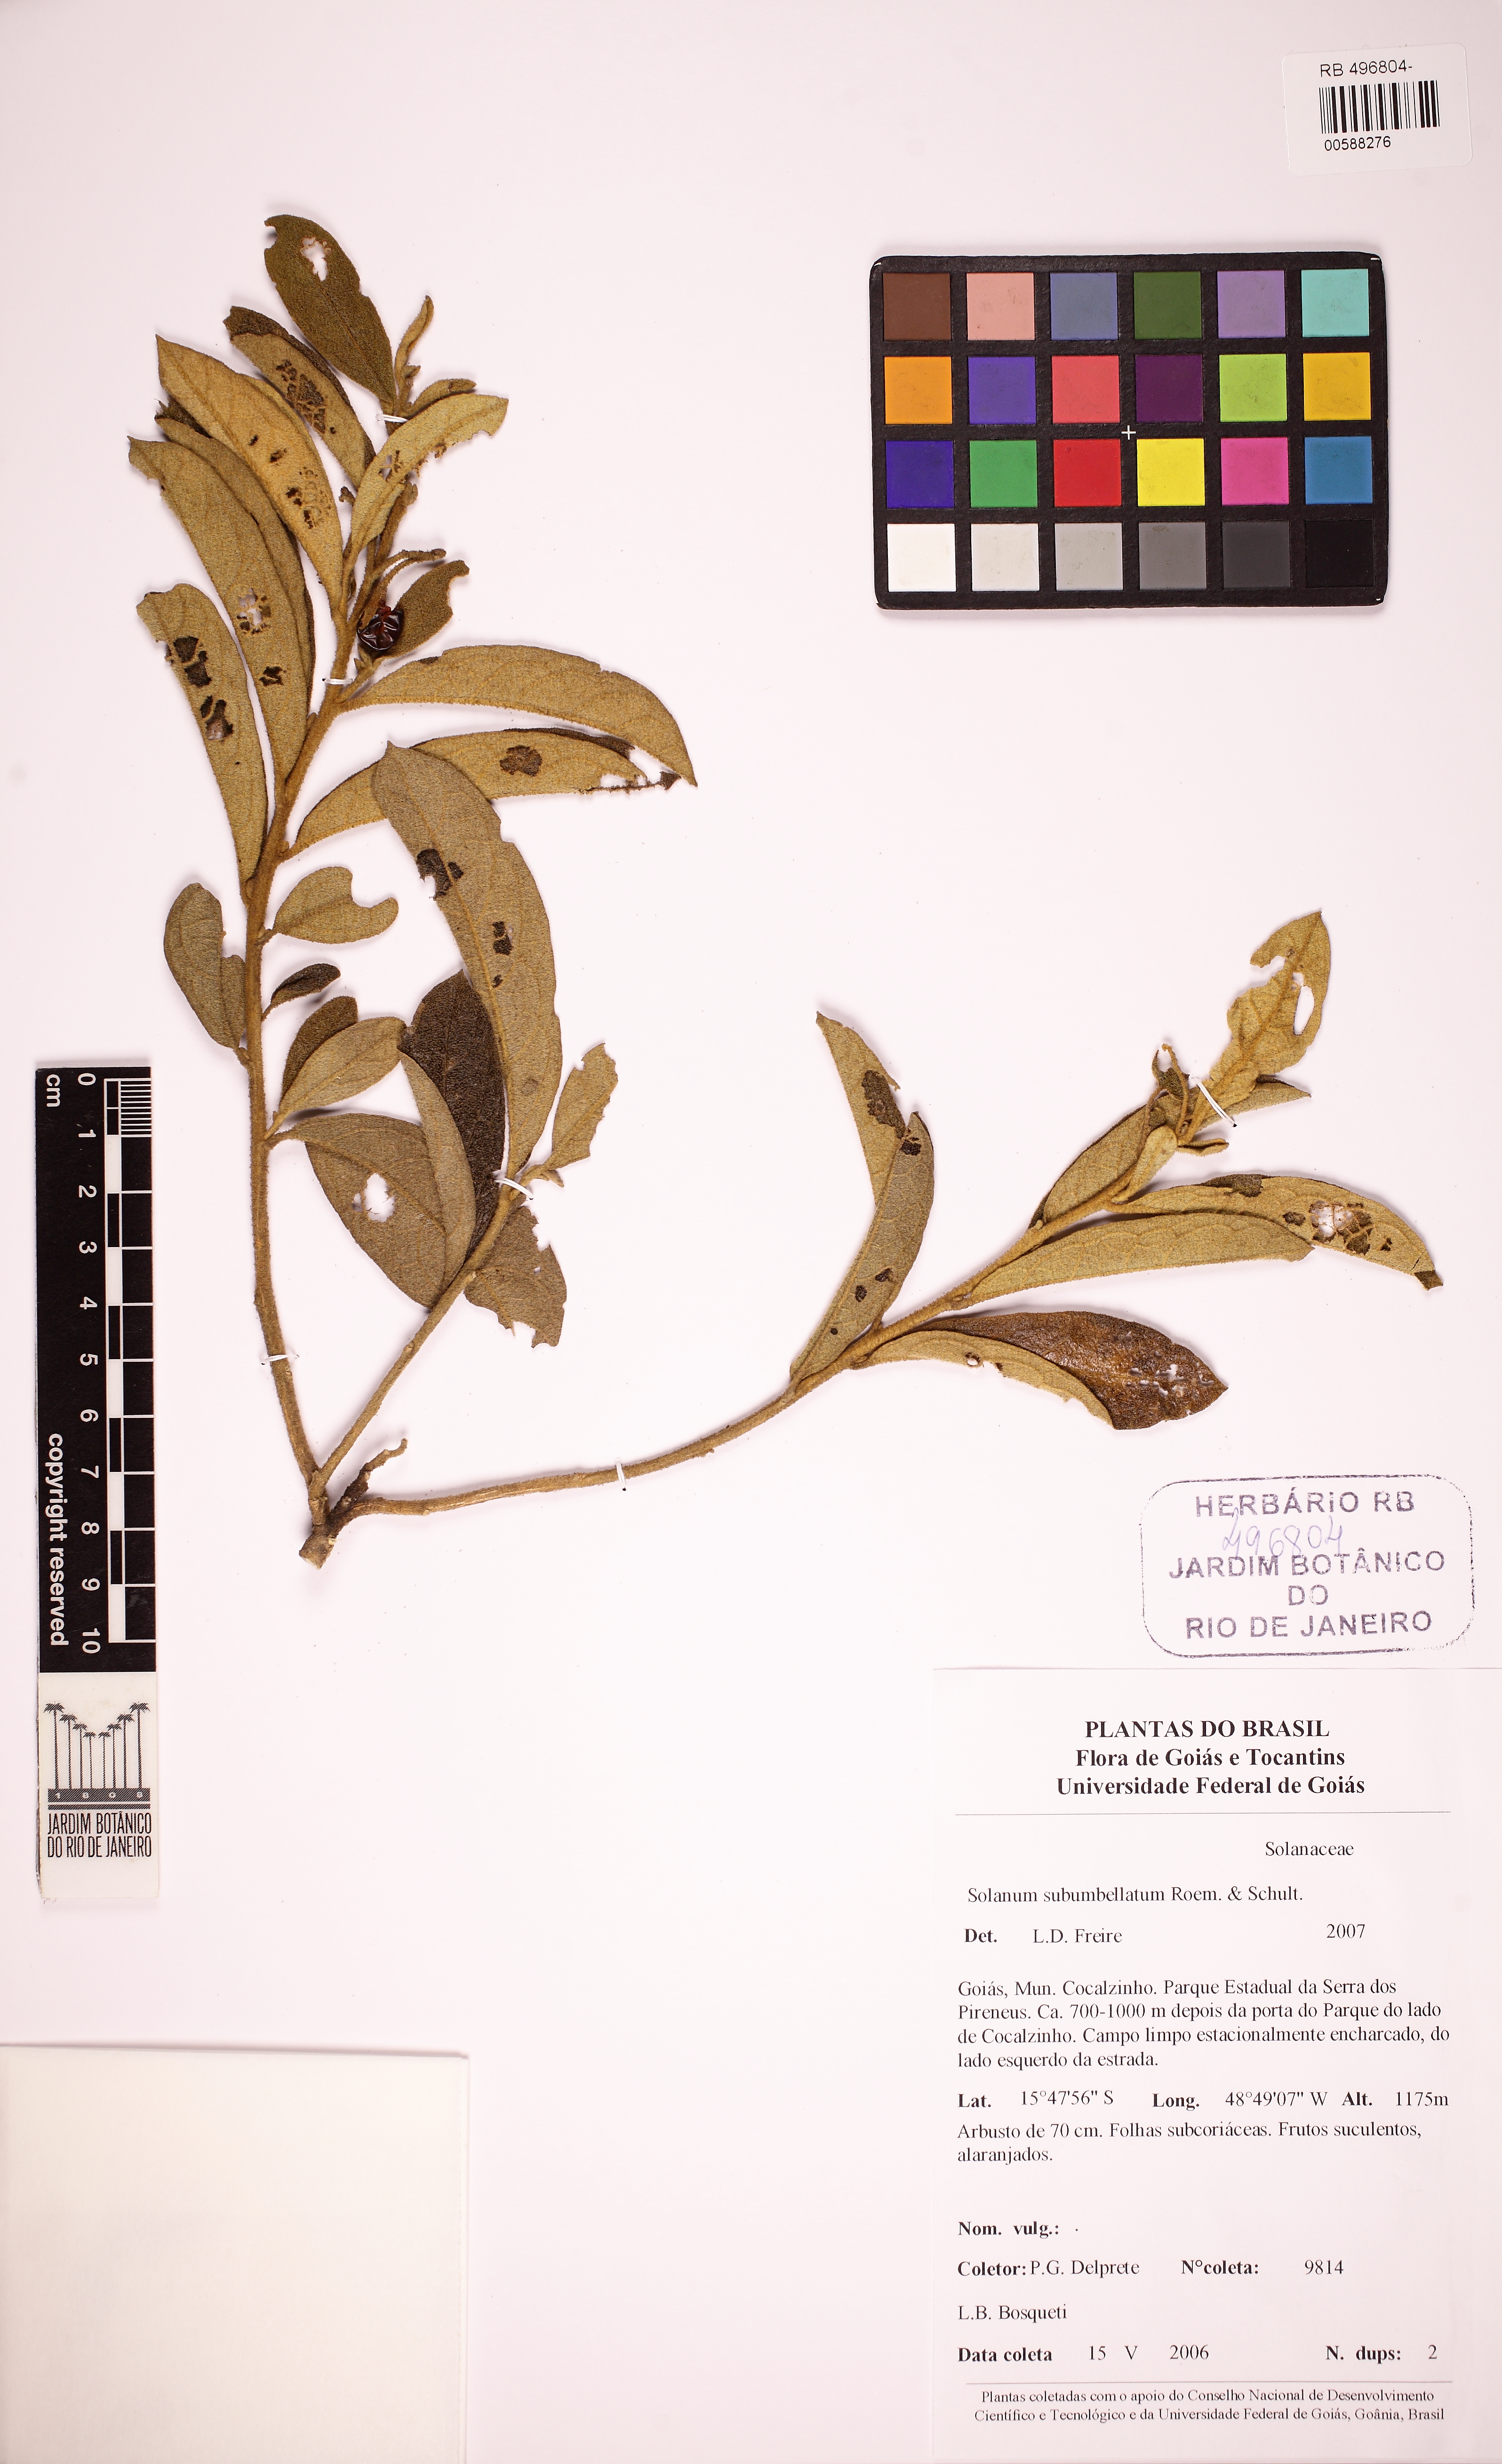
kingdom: Plantae
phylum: Tracheophyta
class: Magnoliopsida
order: Solanales
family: Solanaceae
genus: Solanum
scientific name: Solanum subumbellatum
